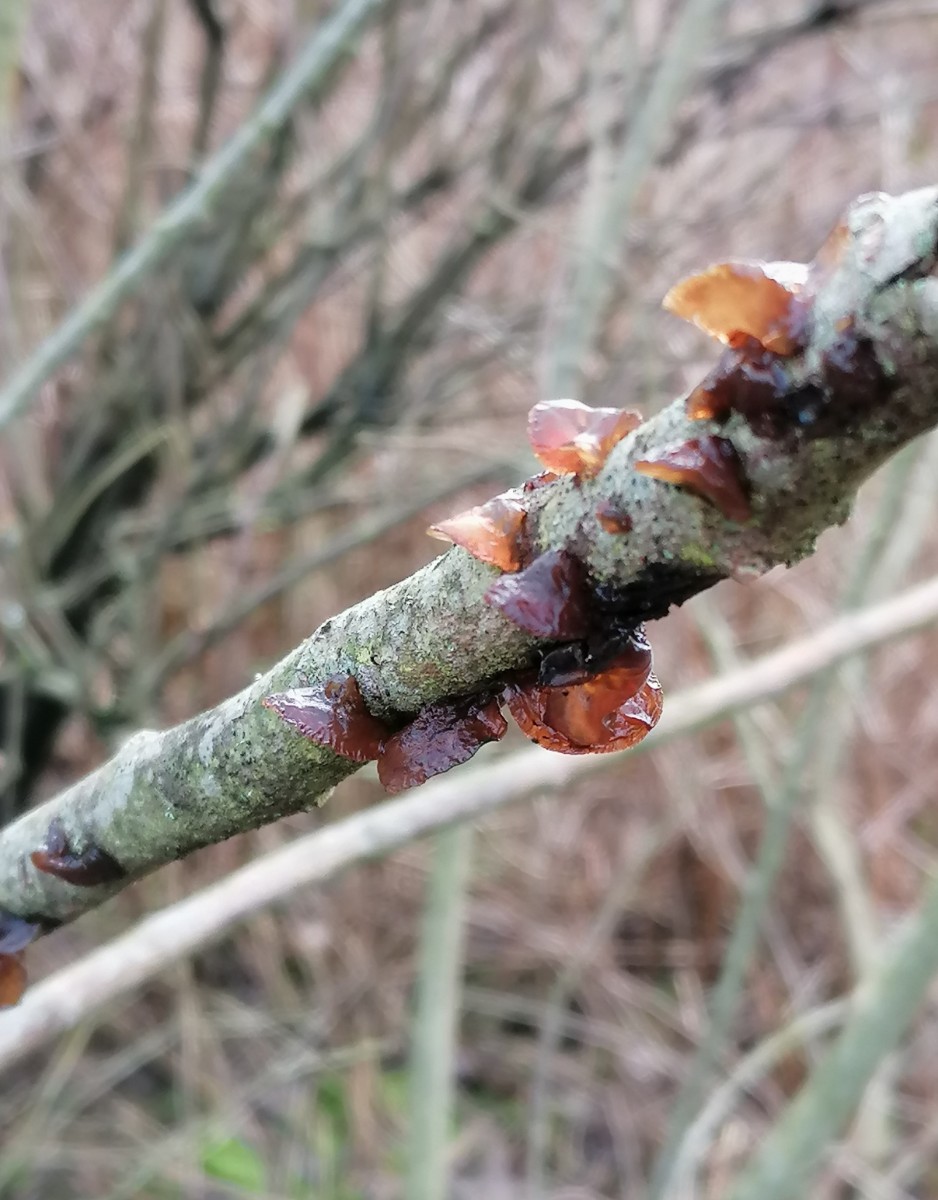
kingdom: Fungi
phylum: Basidiomycota
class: Agaricomycetes
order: Auriculariales
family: Auriculariaceae
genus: Exidia
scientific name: Exidia recisa
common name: pile-bævretop
